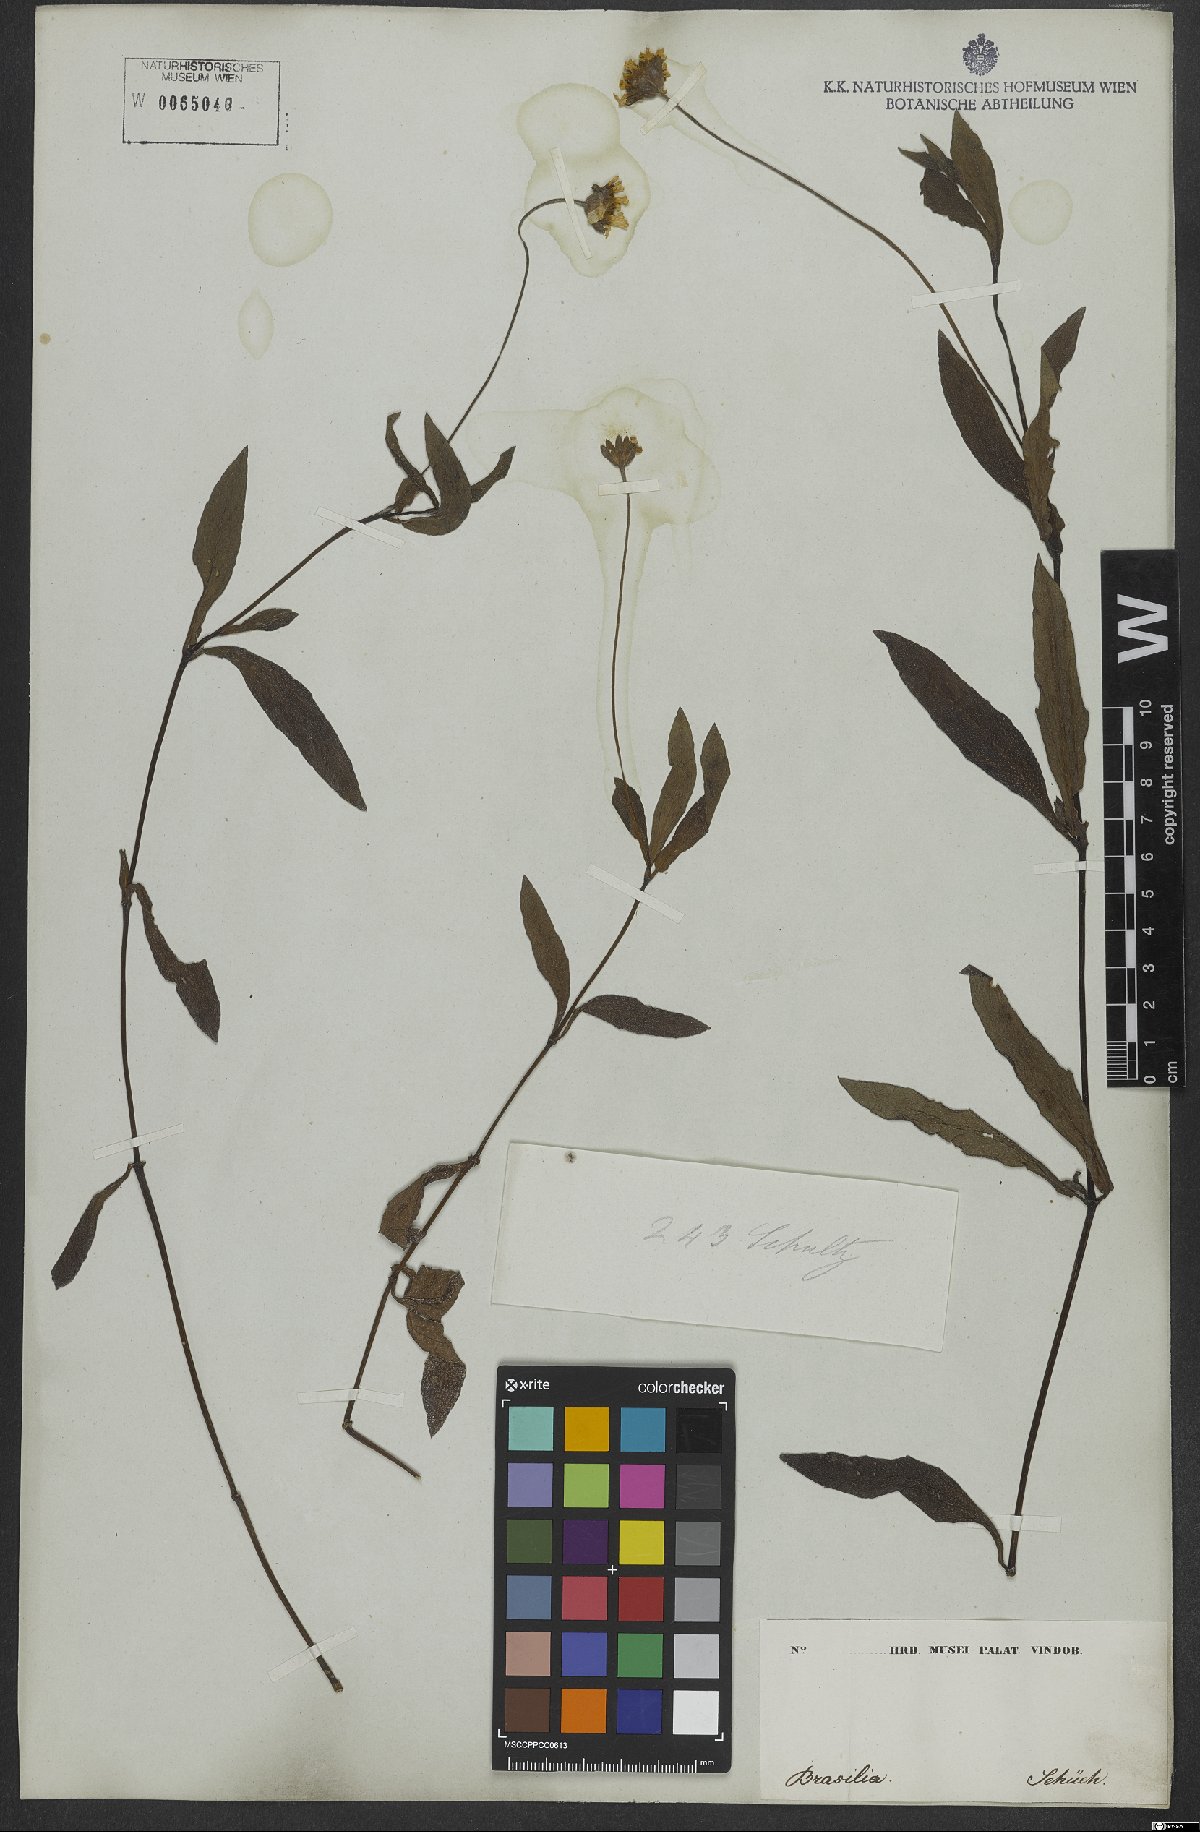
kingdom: Plantae
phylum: Tracheophyta
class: Magnoliopsida
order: Asterales
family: Asteraceae
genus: Sphagneticola
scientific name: Sphagneticola trilobata
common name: Bay biscayne creeping-oxeye
